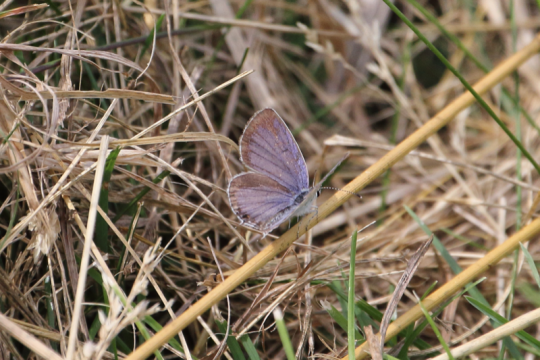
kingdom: Animalia
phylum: Arthropoda
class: Insecta
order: Lepidoptera
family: Lycaenidae
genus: Elkalyce
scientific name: Elkalyce comyntas
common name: Eastern Tailed-Blue
